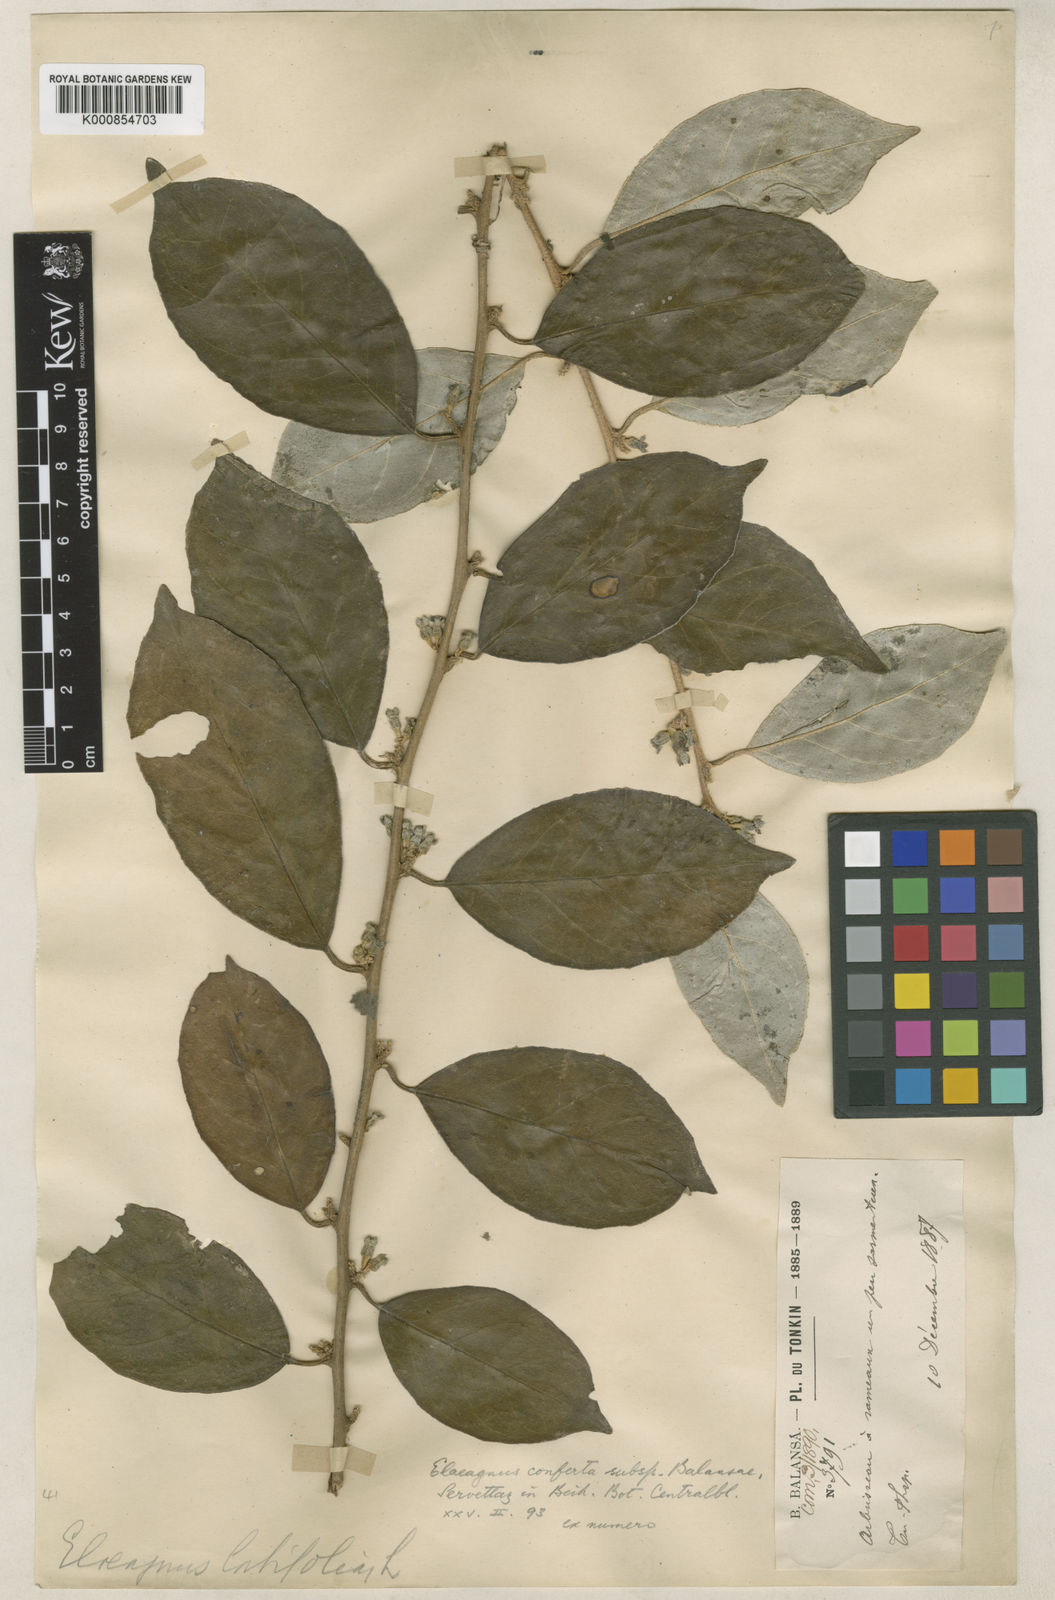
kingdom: Plantae
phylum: Tracheophyta
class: Magnoliopsida
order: Rosales
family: Elaeagnaceae
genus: Elaeagnus
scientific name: Elaeagnus conferta
